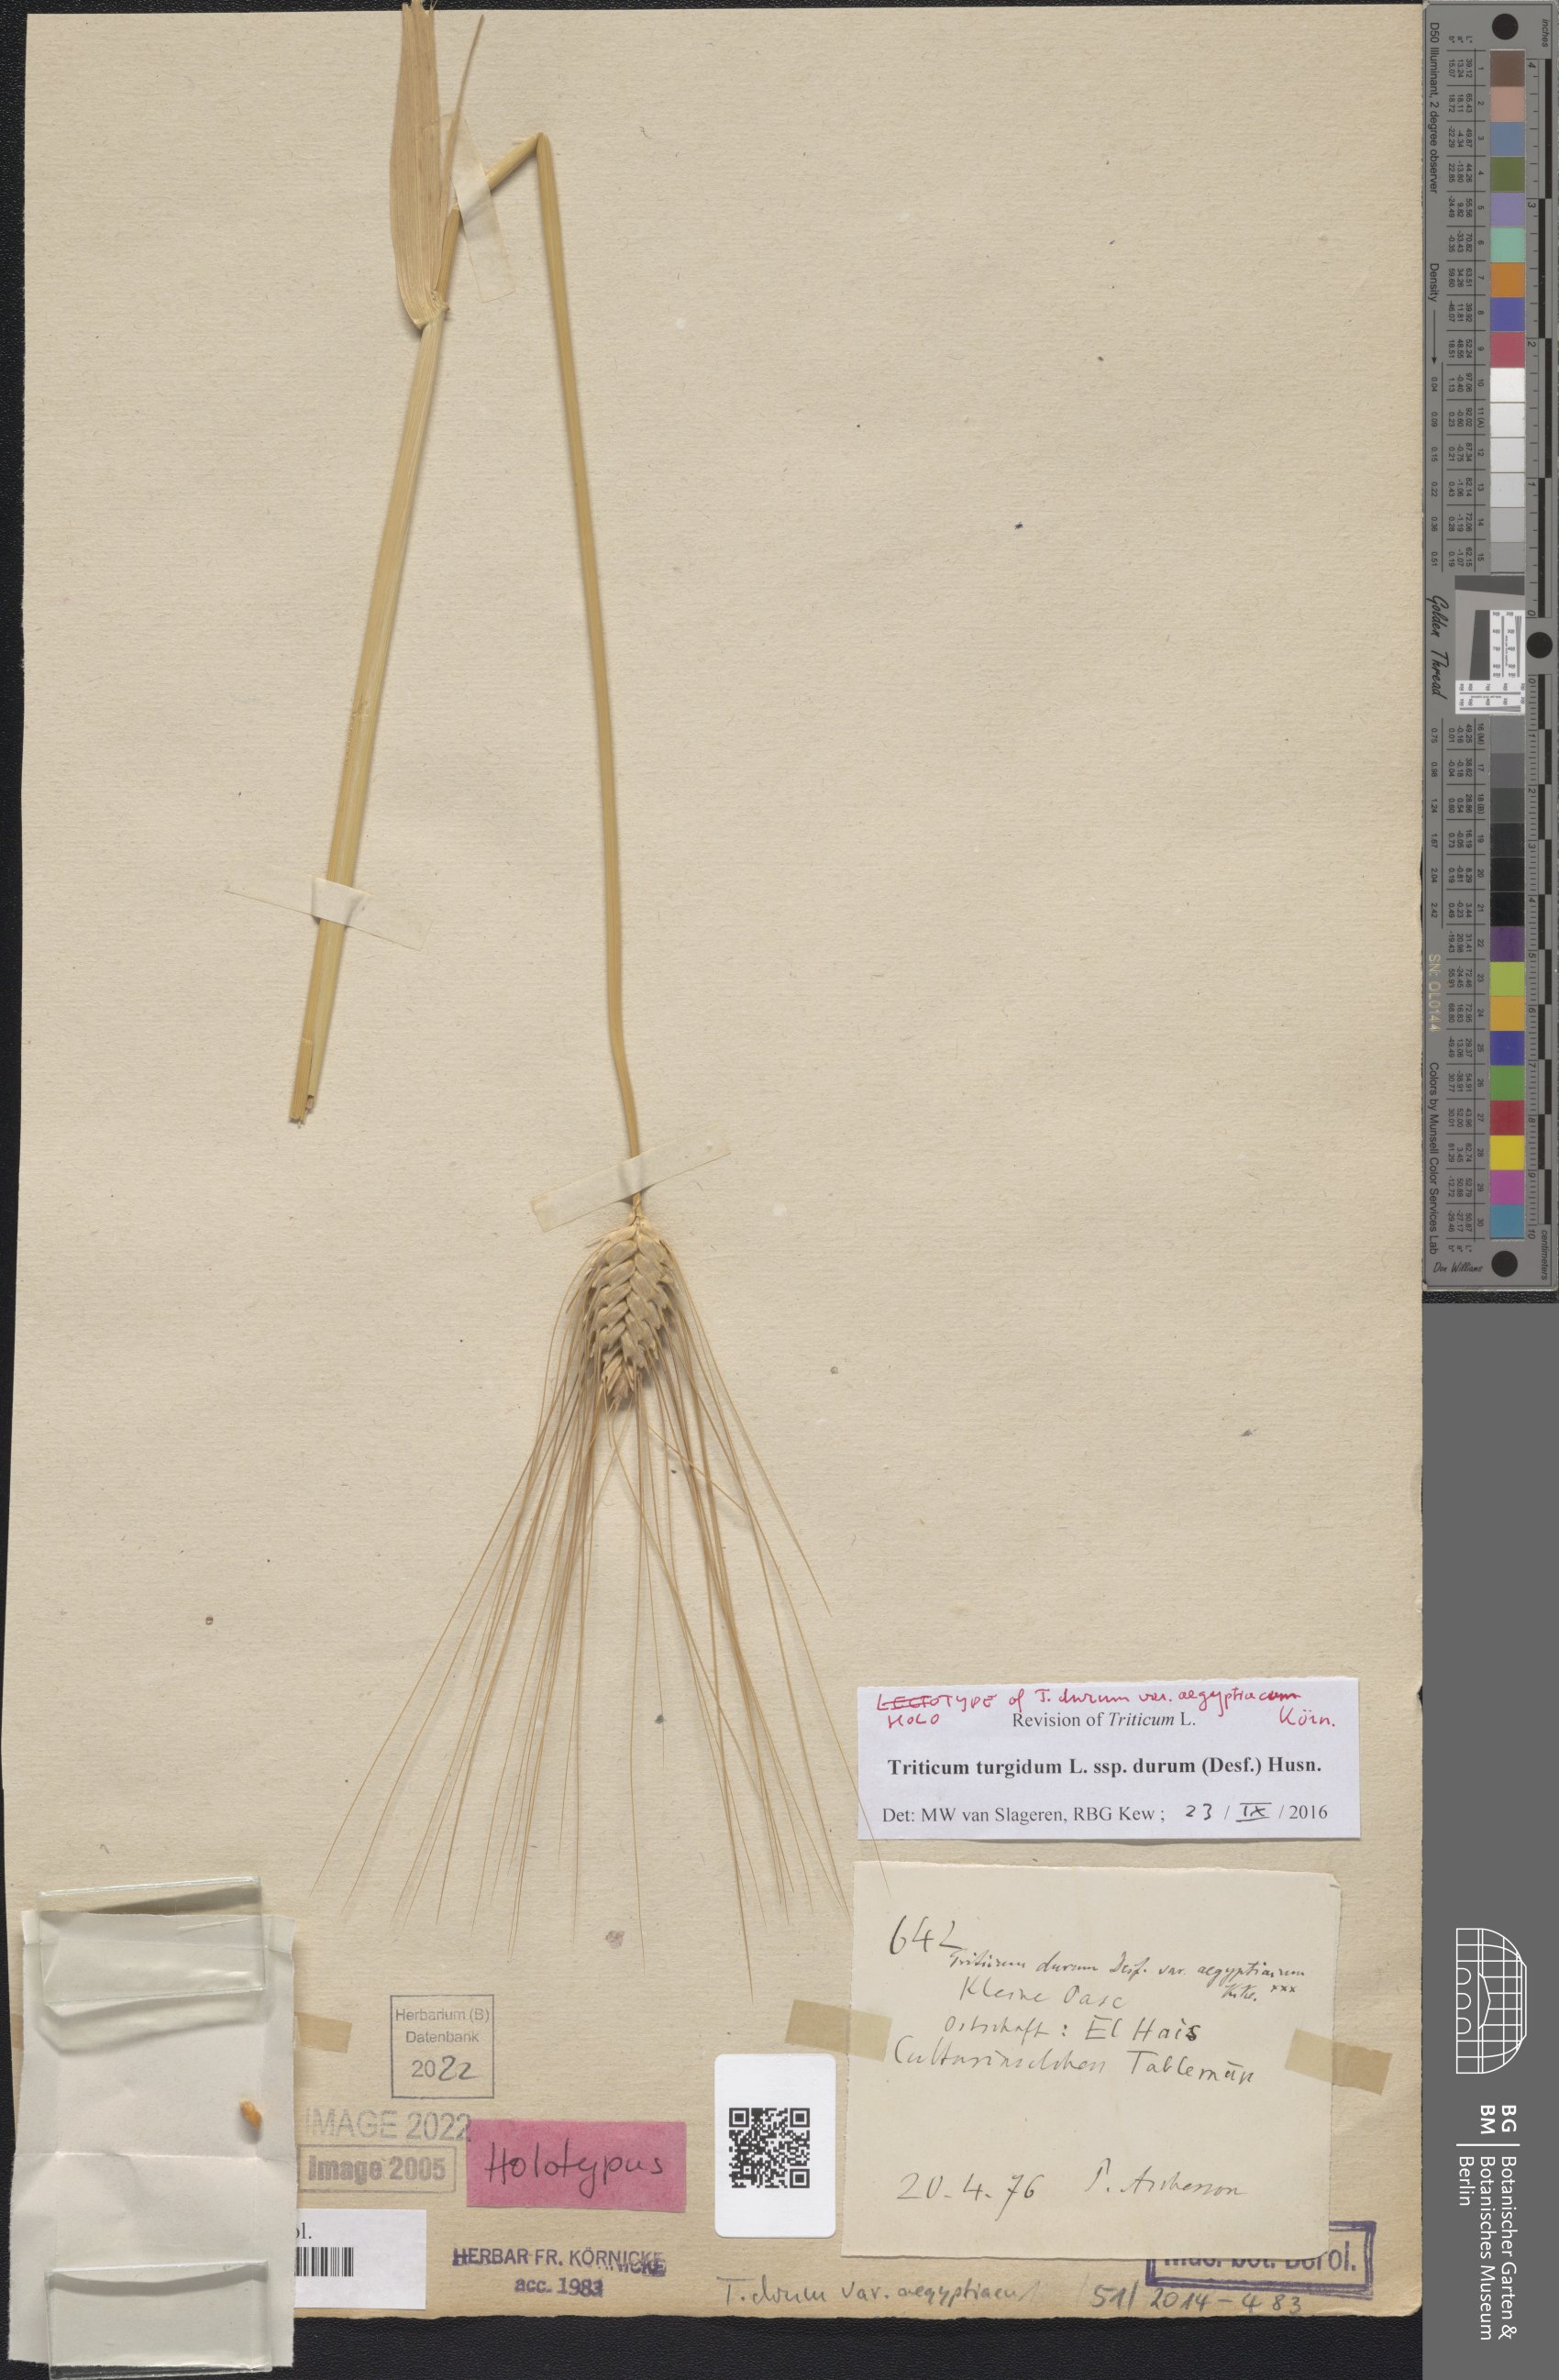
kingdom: Plantae
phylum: Tracheophyta
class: Liliopsida
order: Poales
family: Poaceae
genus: Triticum
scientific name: Triticum turgidum
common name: Rivet wheat
